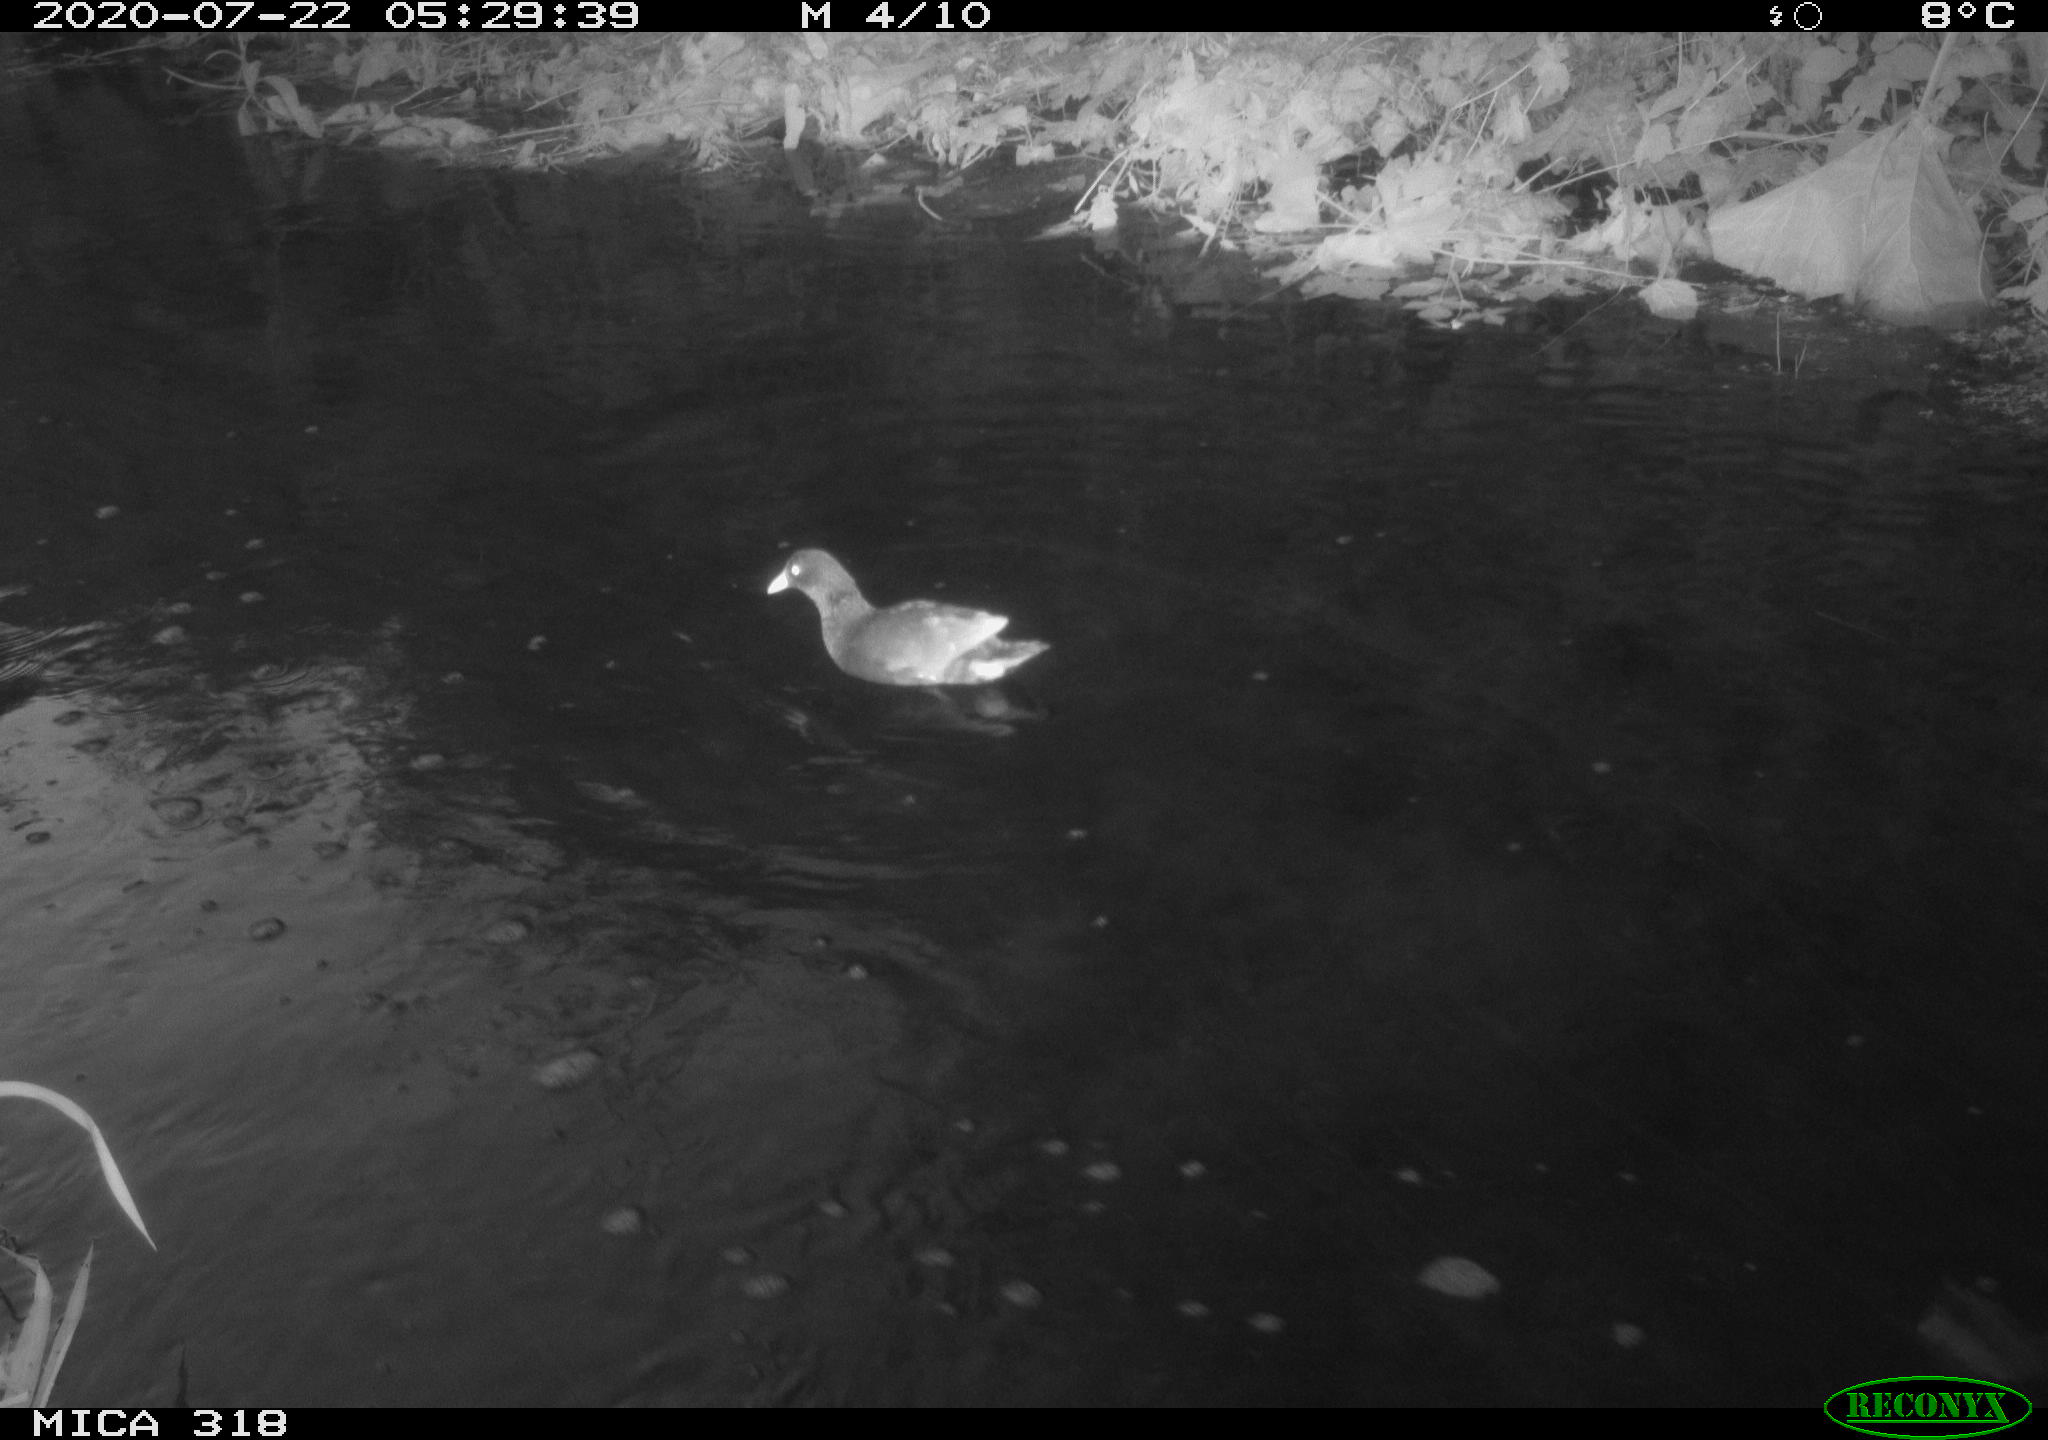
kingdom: Animalia
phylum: Chordata
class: Aves
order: Gruiformes
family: Rallidae
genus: Gallinula
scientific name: Gallinula chloropus
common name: Common moorhen
